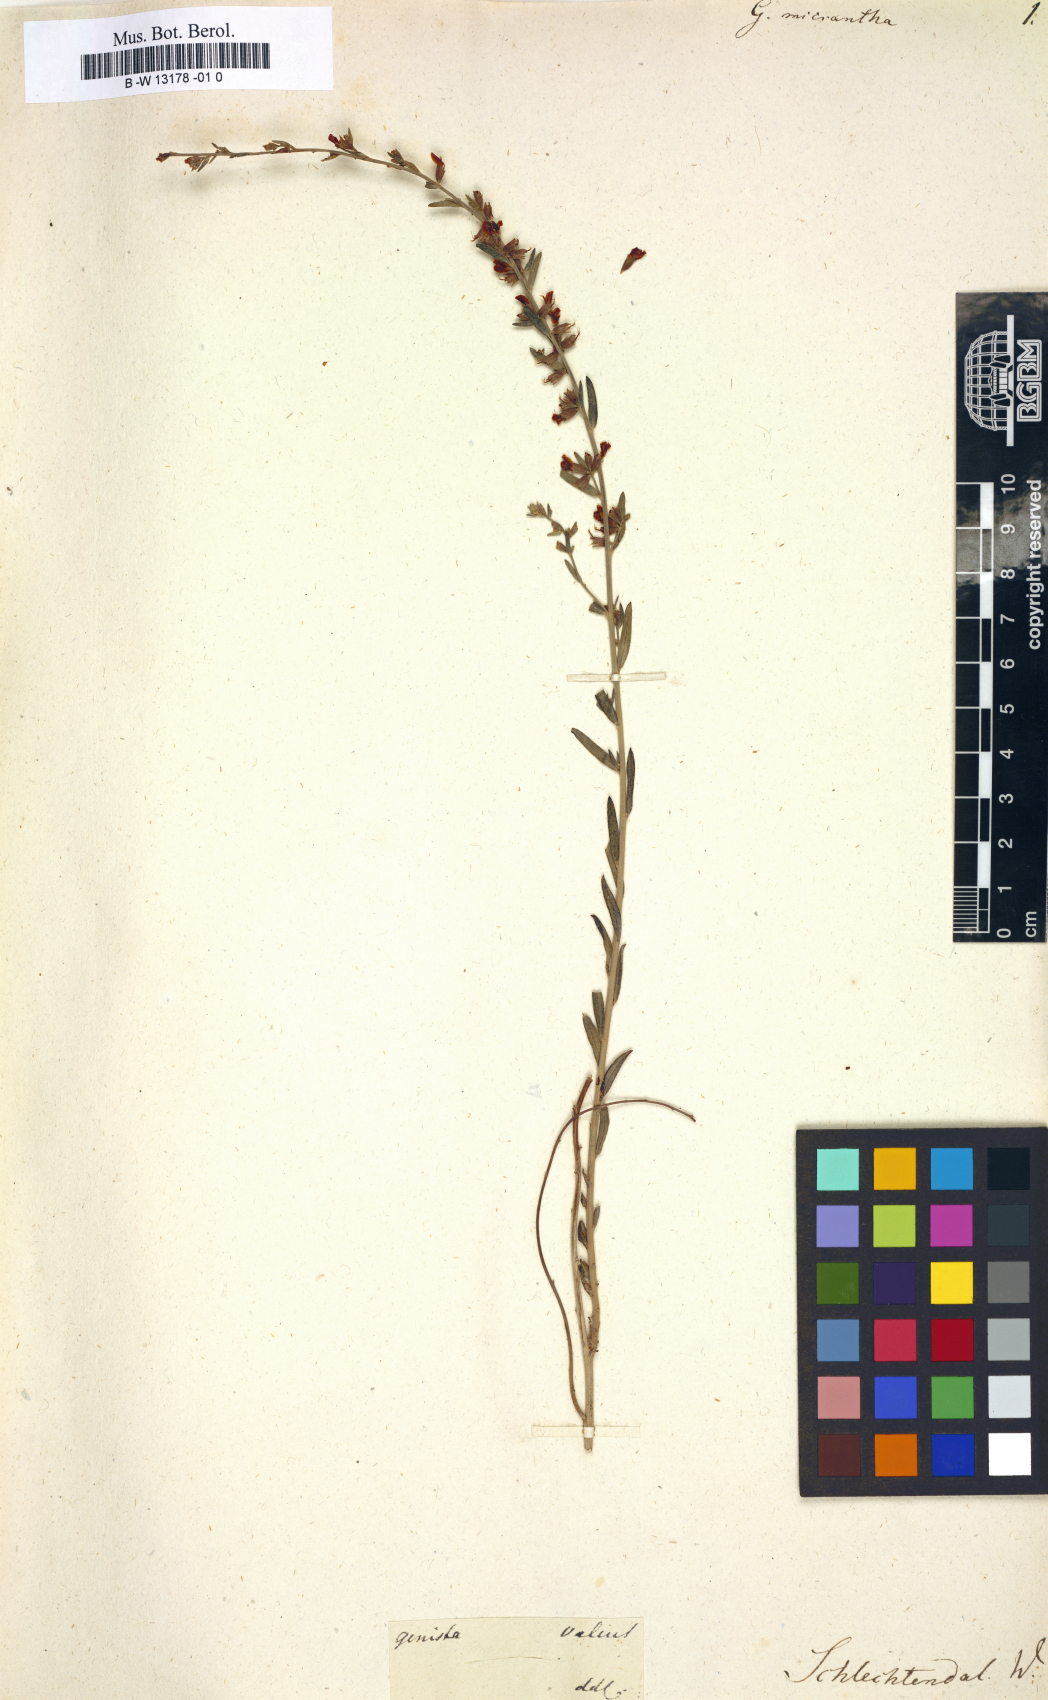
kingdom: Plantae
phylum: Tracheophyta
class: Magnoliopsida
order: Fabales
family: Fabaceae
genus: Genista
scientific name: Genista micrantha
